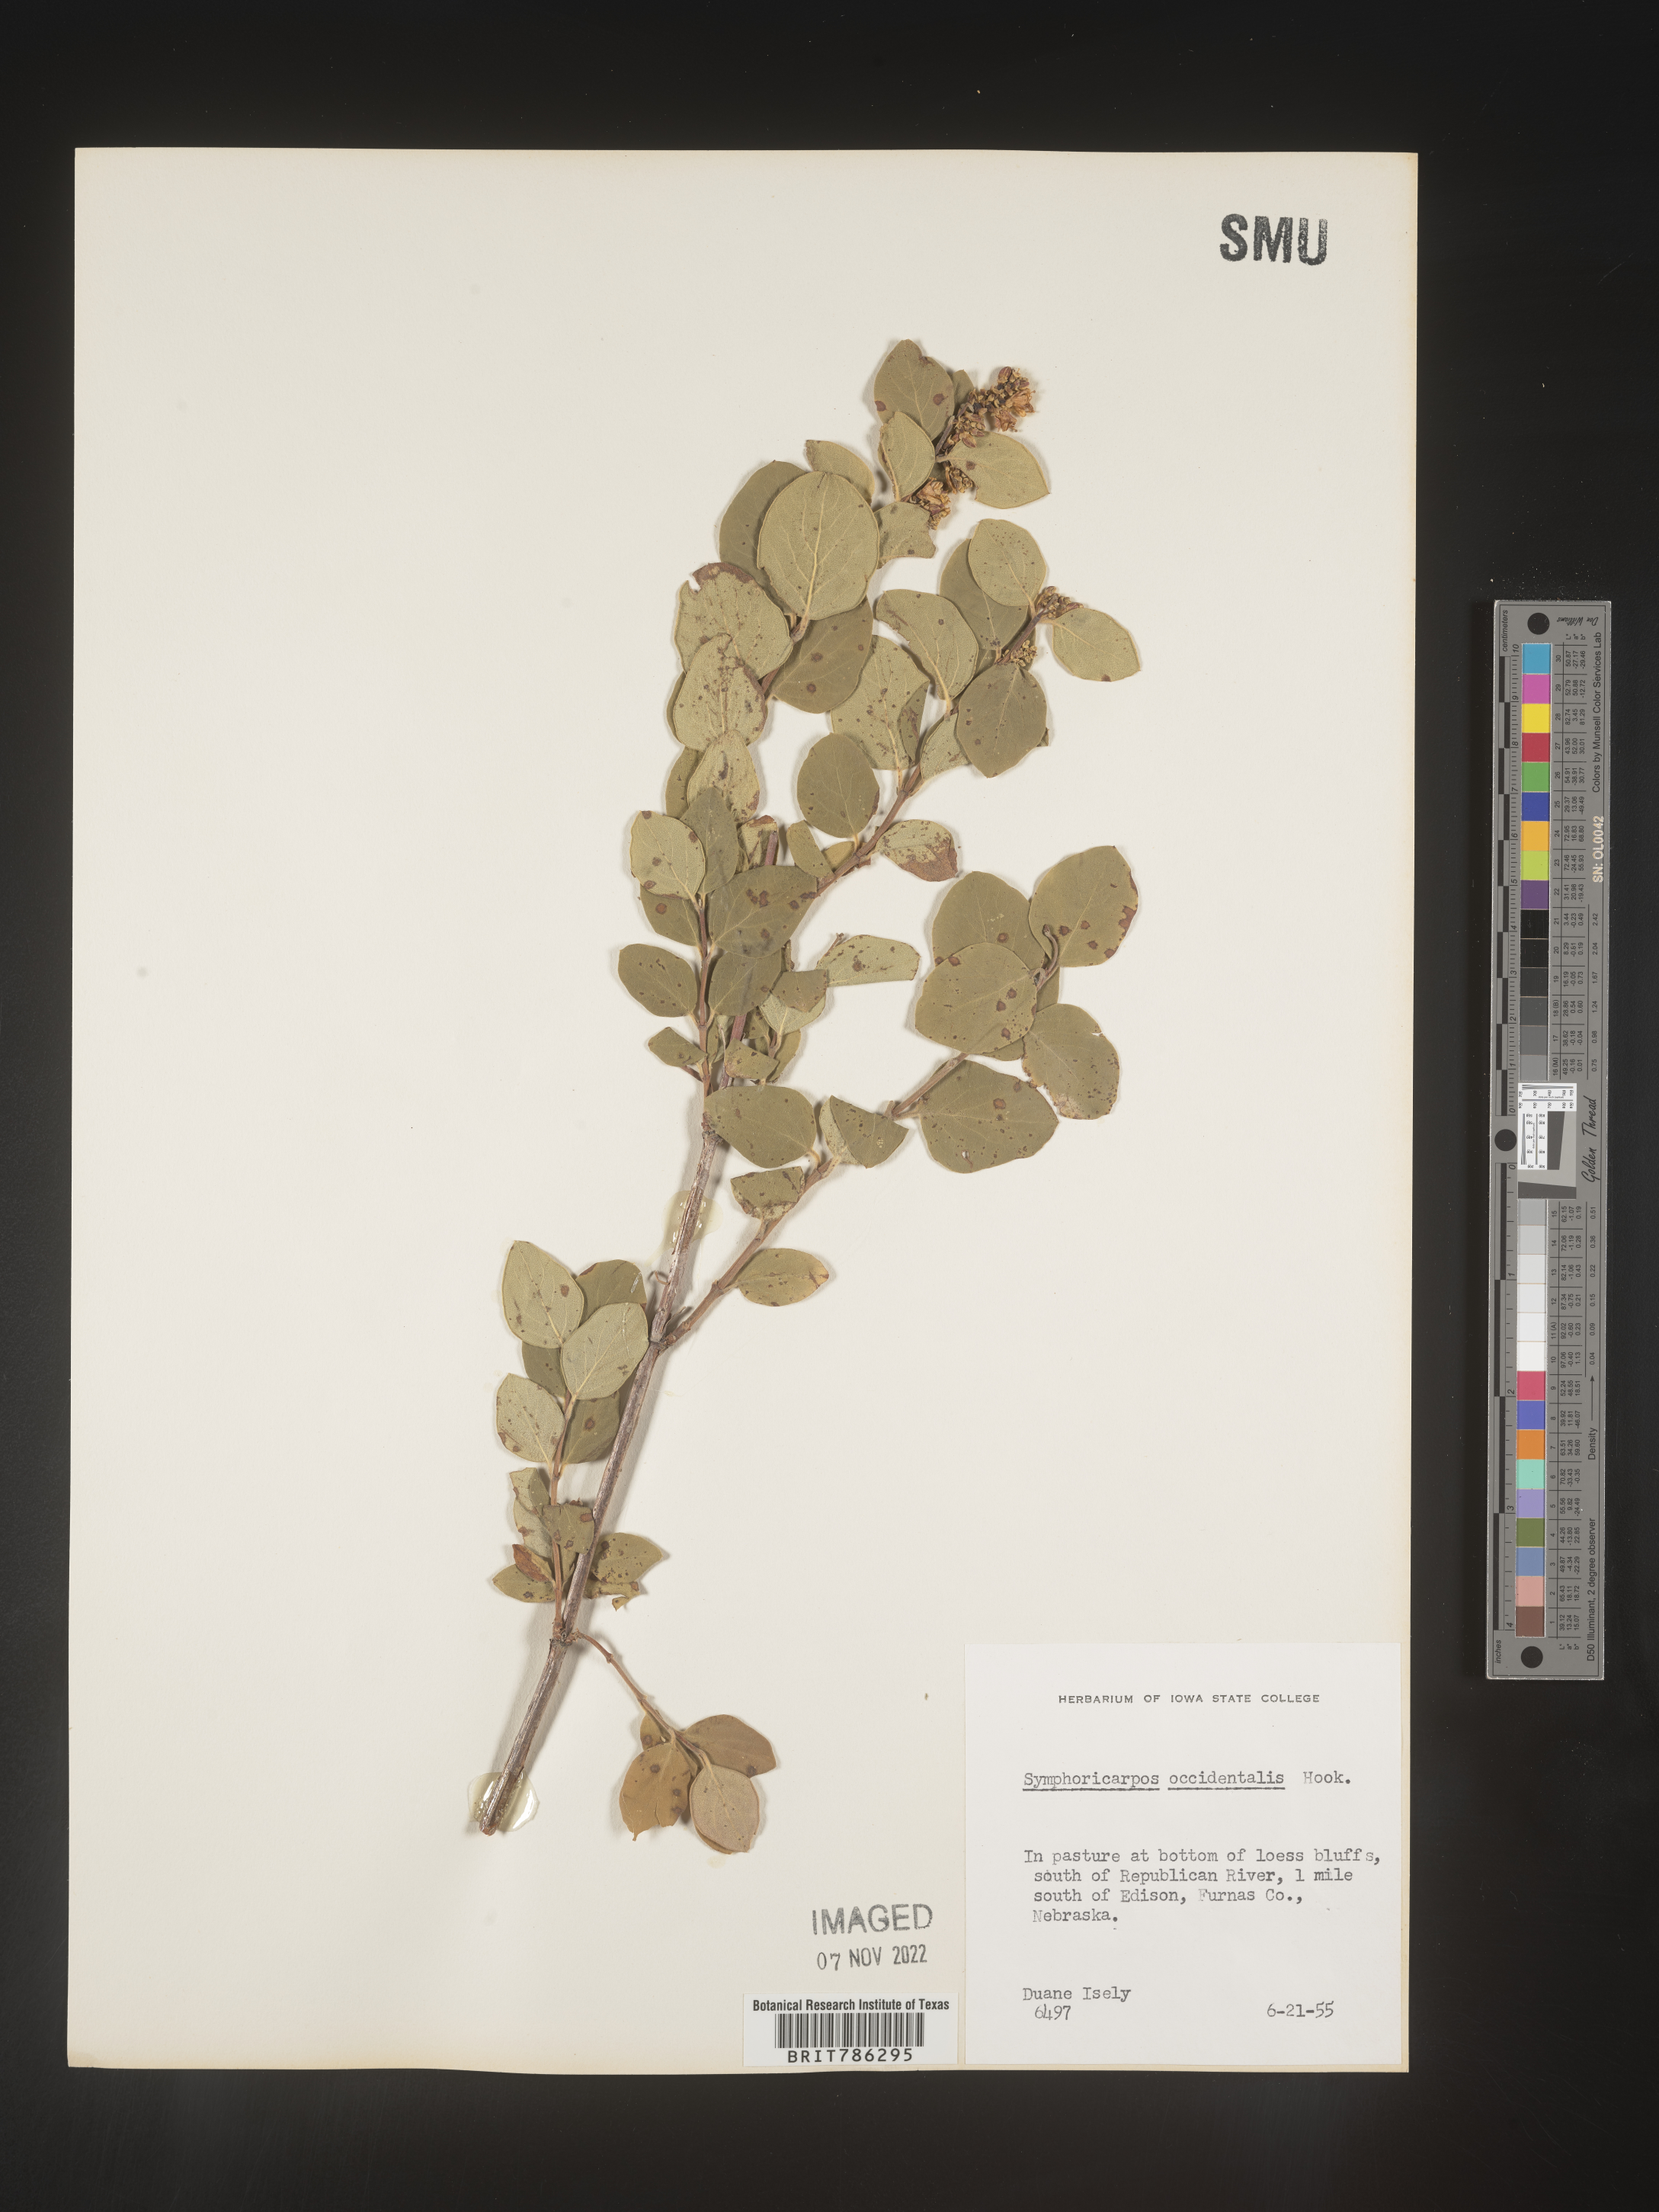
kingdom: Plantae
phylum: Tracheophyta
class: Magnoliopsida
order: Dipsacales
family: Caprifoliaceae
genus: Symphoricarpos
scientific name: Symphoricarpos occidentalis
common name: Wolfberry
